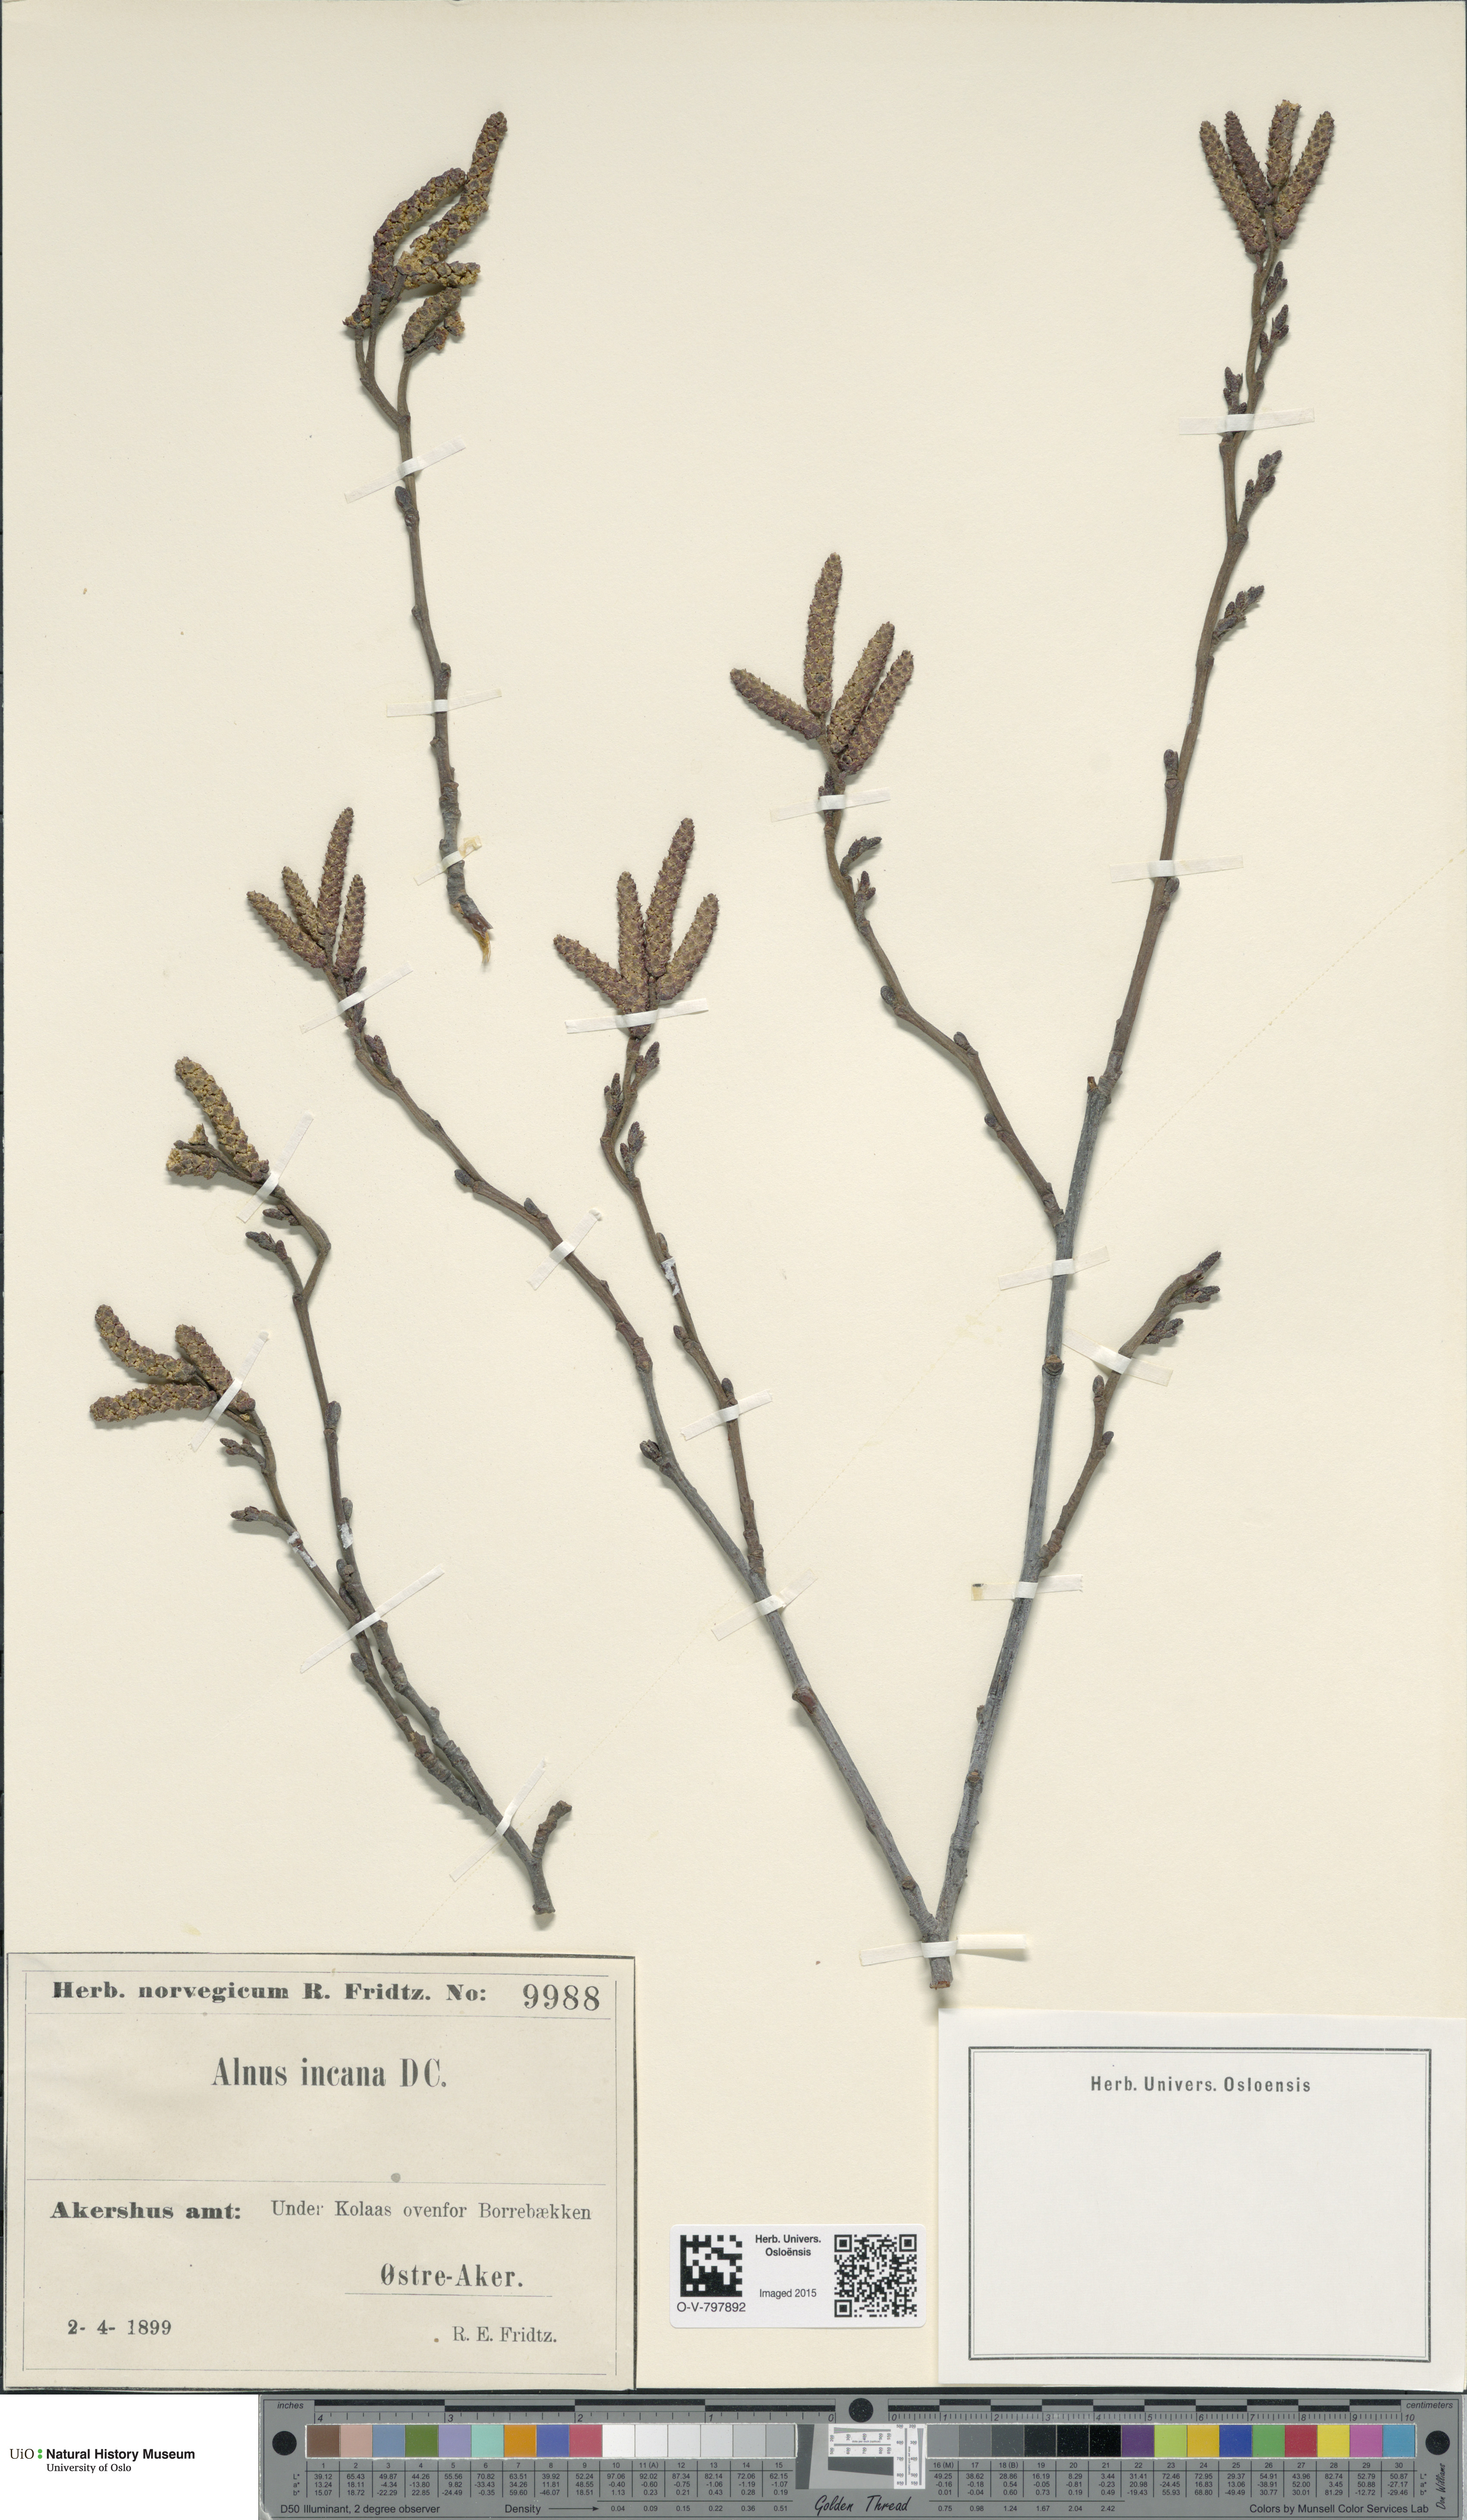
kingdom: Plantae
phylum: Tracheophyta
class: Magnoliopsida
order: Fagales
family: Betulaceae
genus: Alnus
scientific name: Alnus incana
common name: Grey alder
